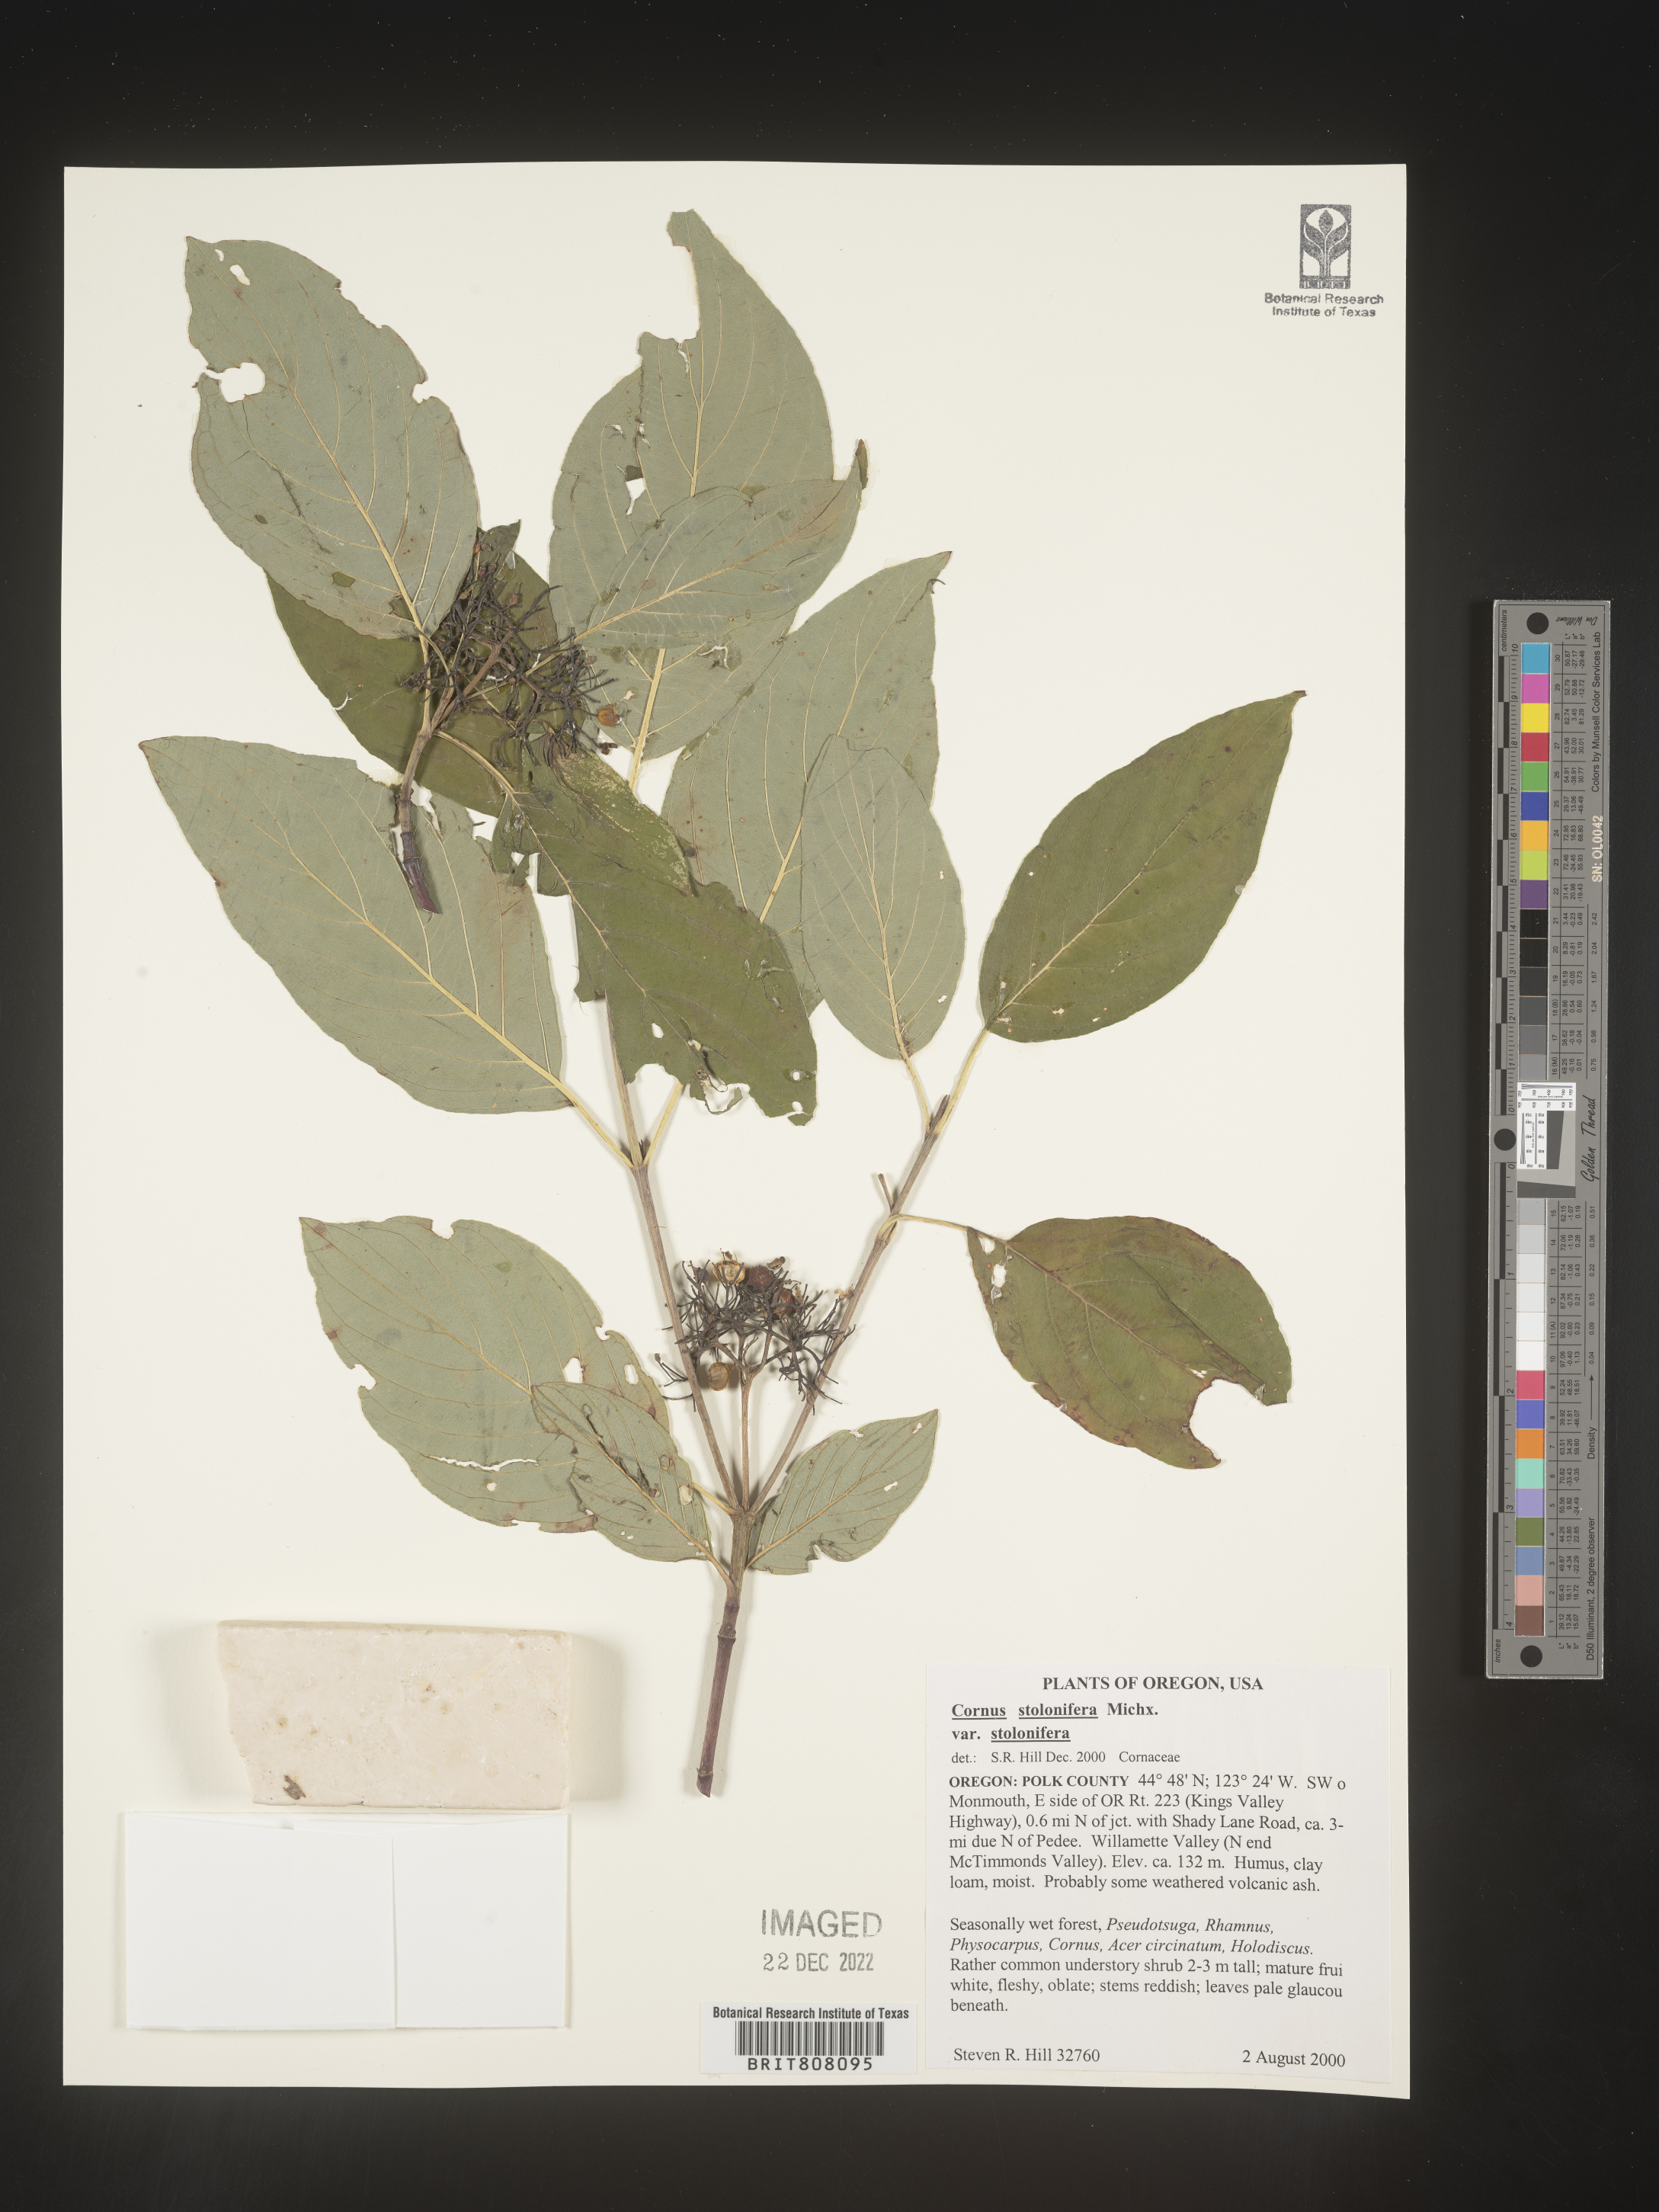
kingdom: Plantae
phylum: Tracheophyta
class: Magnoliopsida
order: Cornales
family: Cornaceae
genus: Cornus
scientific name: Cornus sericea
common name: Red-osier dogwood
